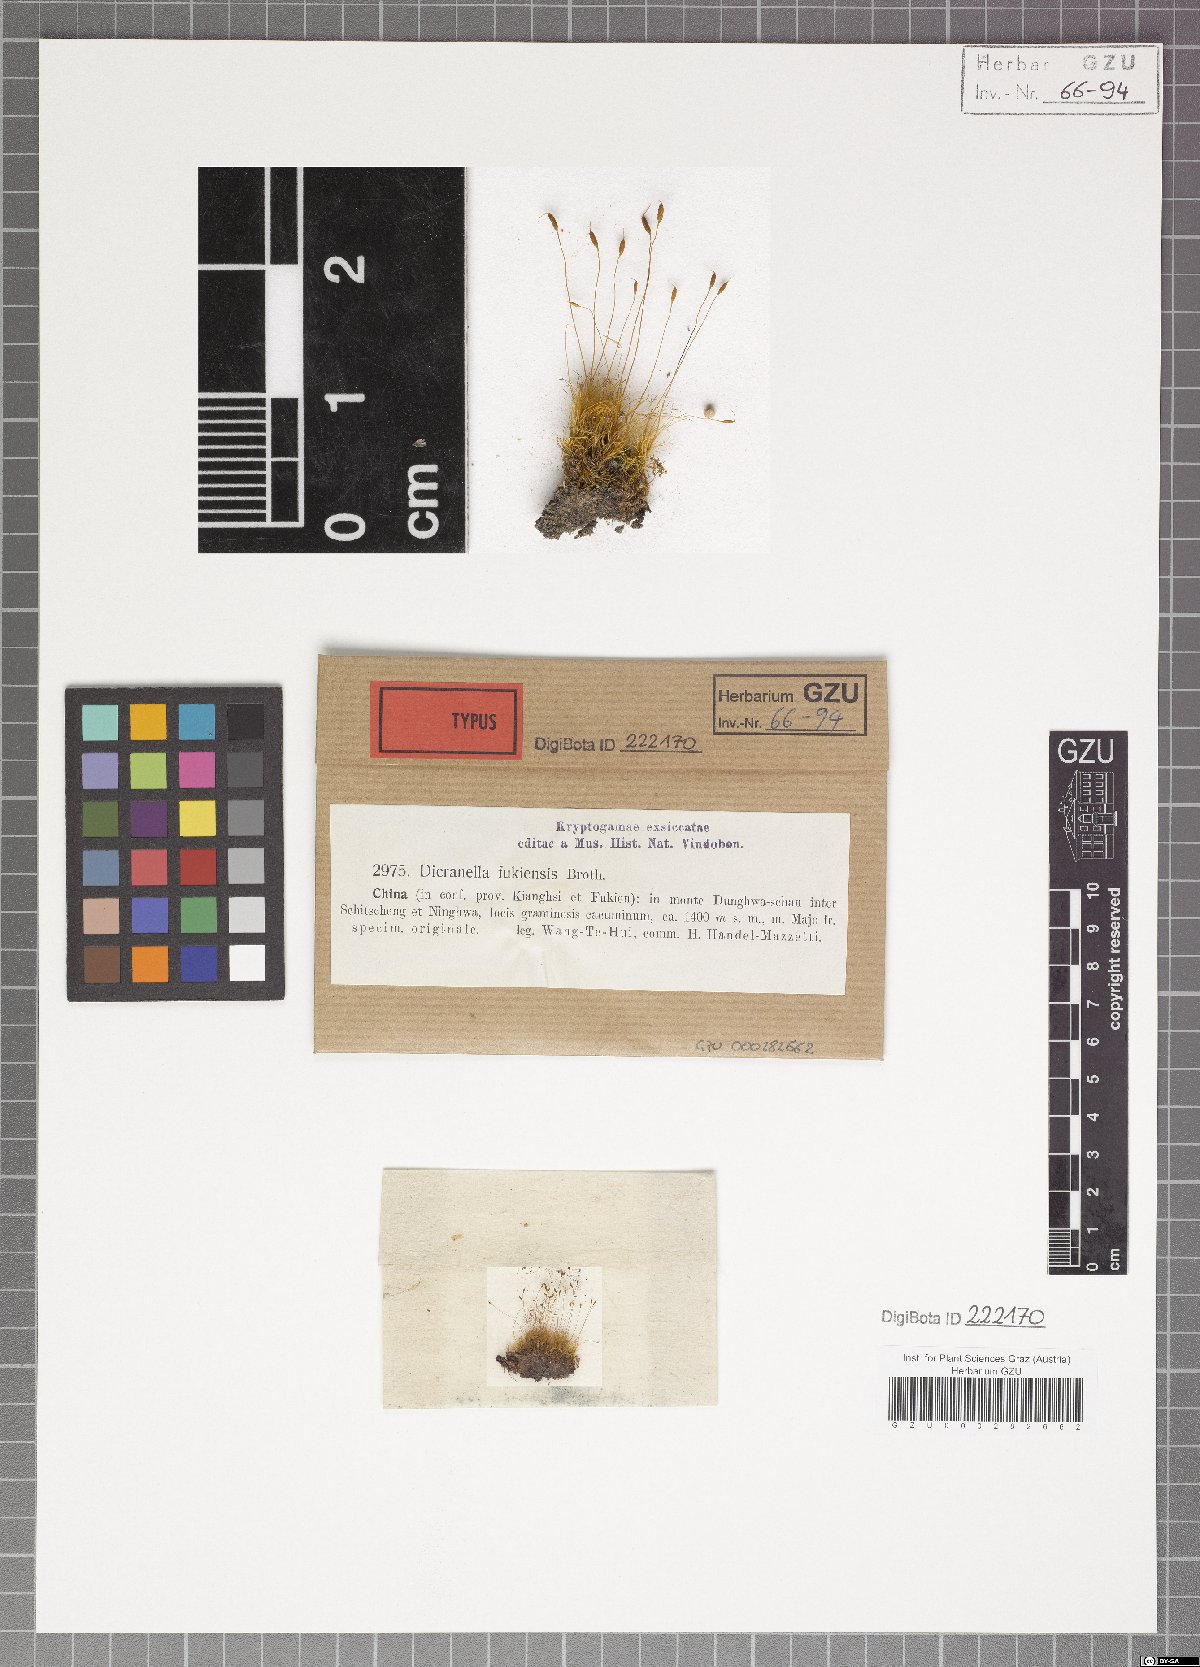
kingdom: Plantae
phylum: Bryophyta
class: Bryopsida
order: Dicranales
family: Dicranellaceae
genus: Dicranella
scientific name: Dicranella fukienensis
